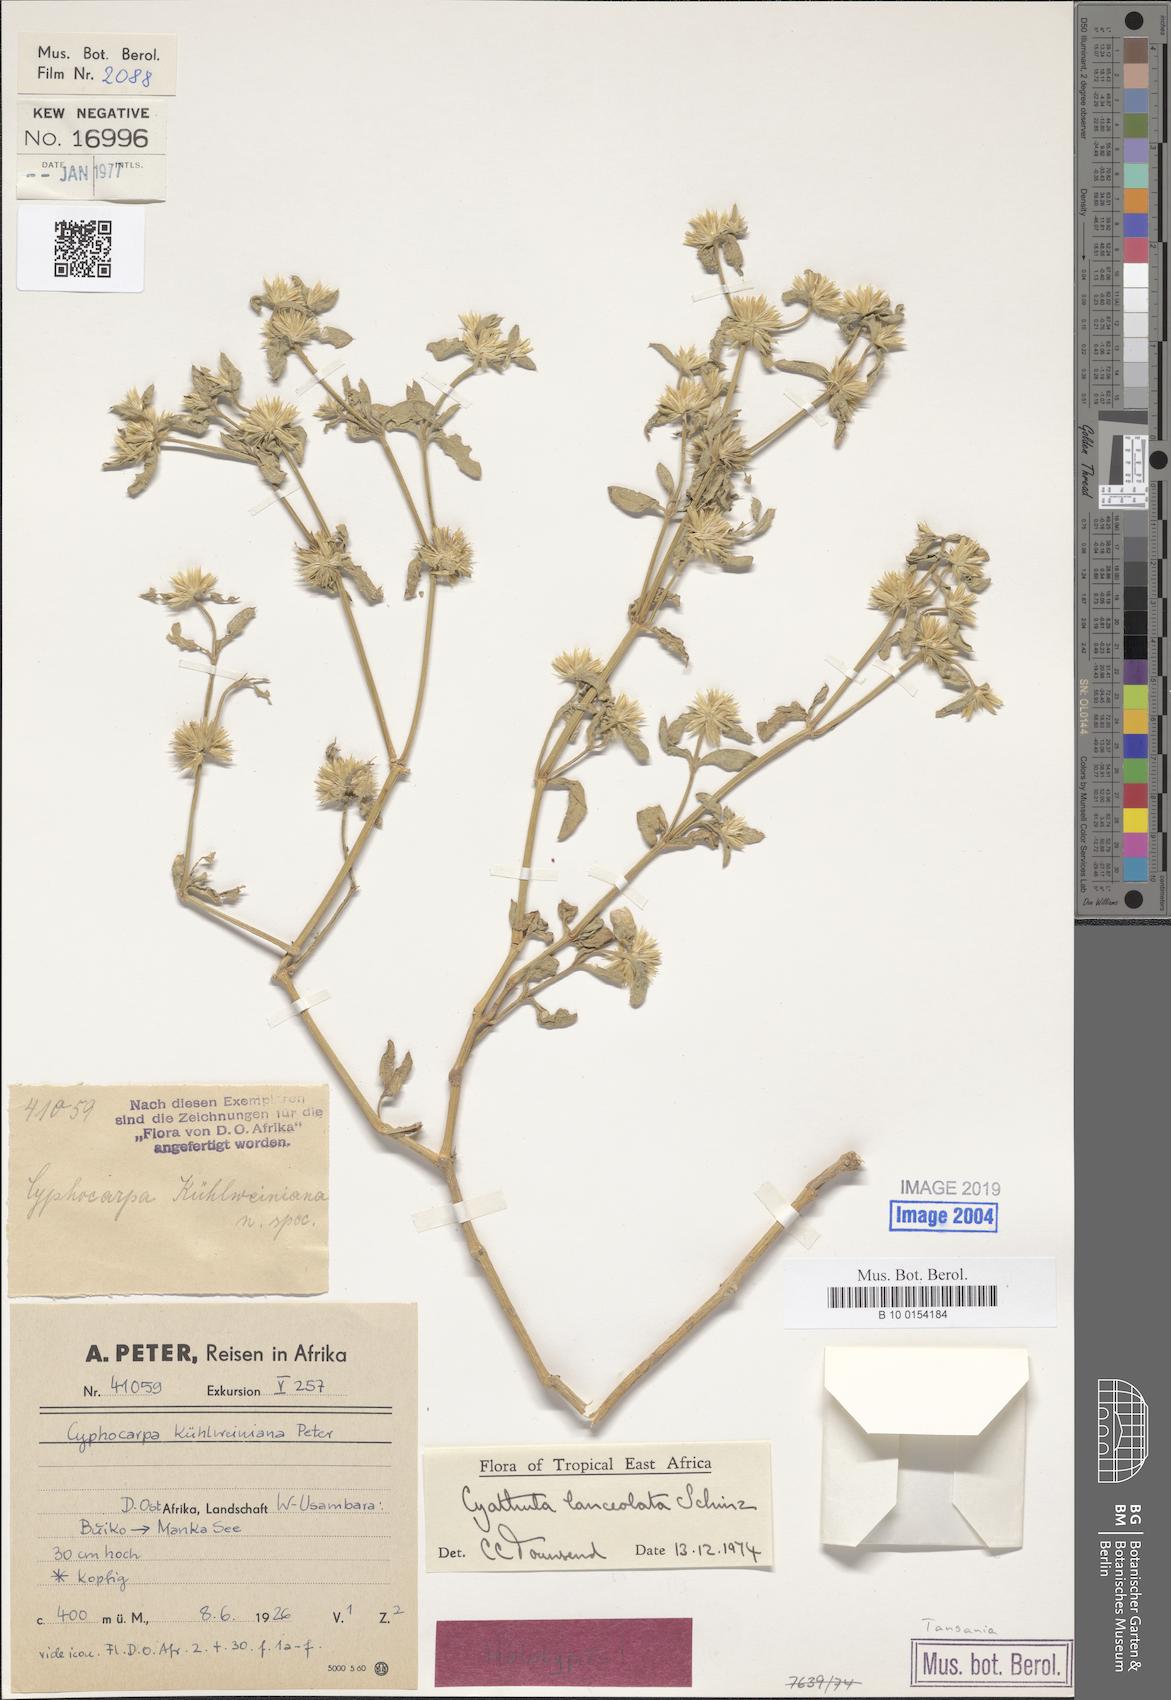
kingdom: Plantae
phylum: Tracheophyta
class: Magnoliopsida
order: Caryophyllales
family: Amaranthaceae
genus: Cyathula
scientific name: Cyathula lanceolata
